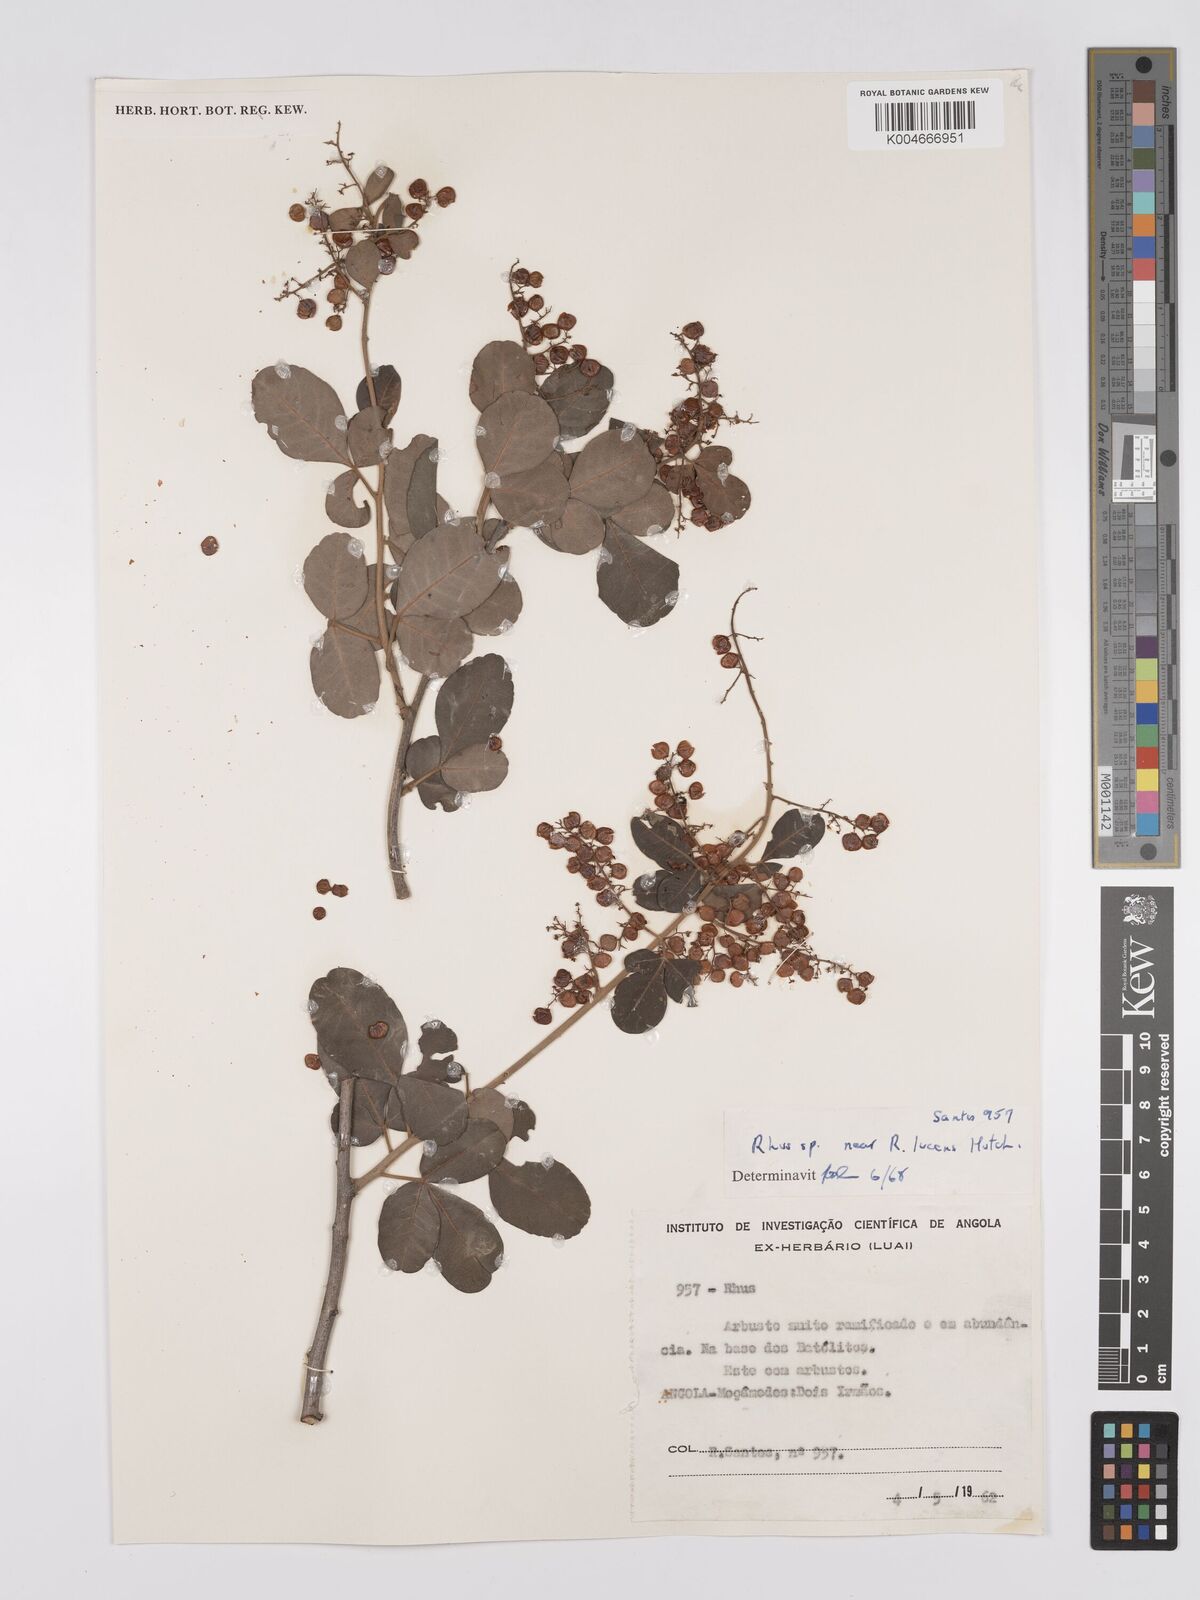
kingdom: Plantae
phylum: Tracheophyta
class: Magnoliopsida
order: Sapindales
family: Anacardiaceae
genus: Searsia
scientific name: Searsia lucens
